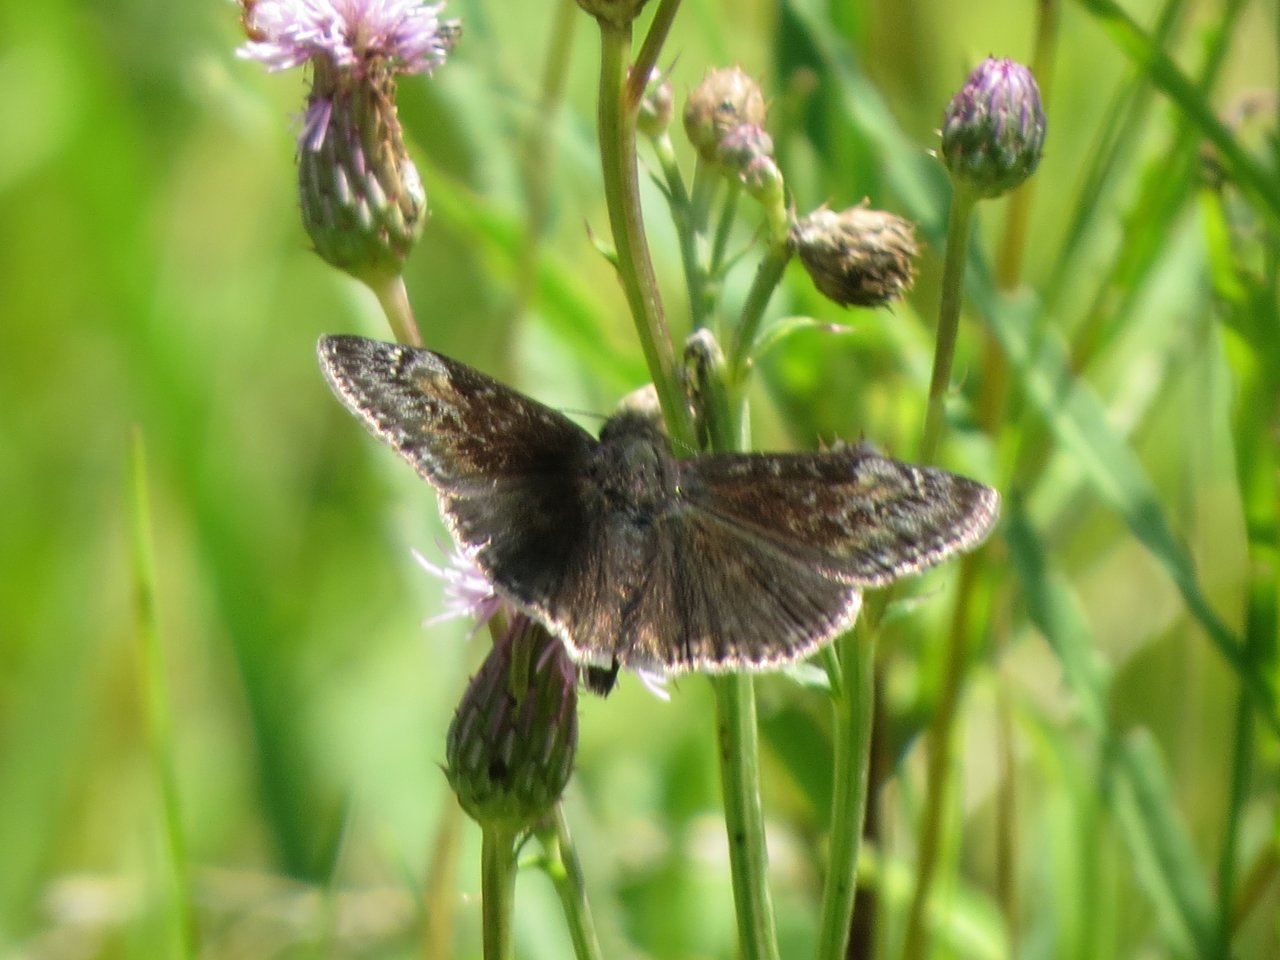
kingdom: Animalia
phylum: Arthropoda
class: Insecta
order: Lepidoptera
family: Hesperiidae
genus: Gesta
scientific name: Gesta
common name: Wild Indigo Duskywing
